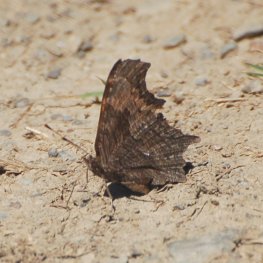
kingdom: Animalia
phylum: Arthropoda
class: Insecta
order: Lepidoptera
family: Nymphalidae
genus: Polygonia
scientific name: Polygonia progne
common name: Gray Comma
